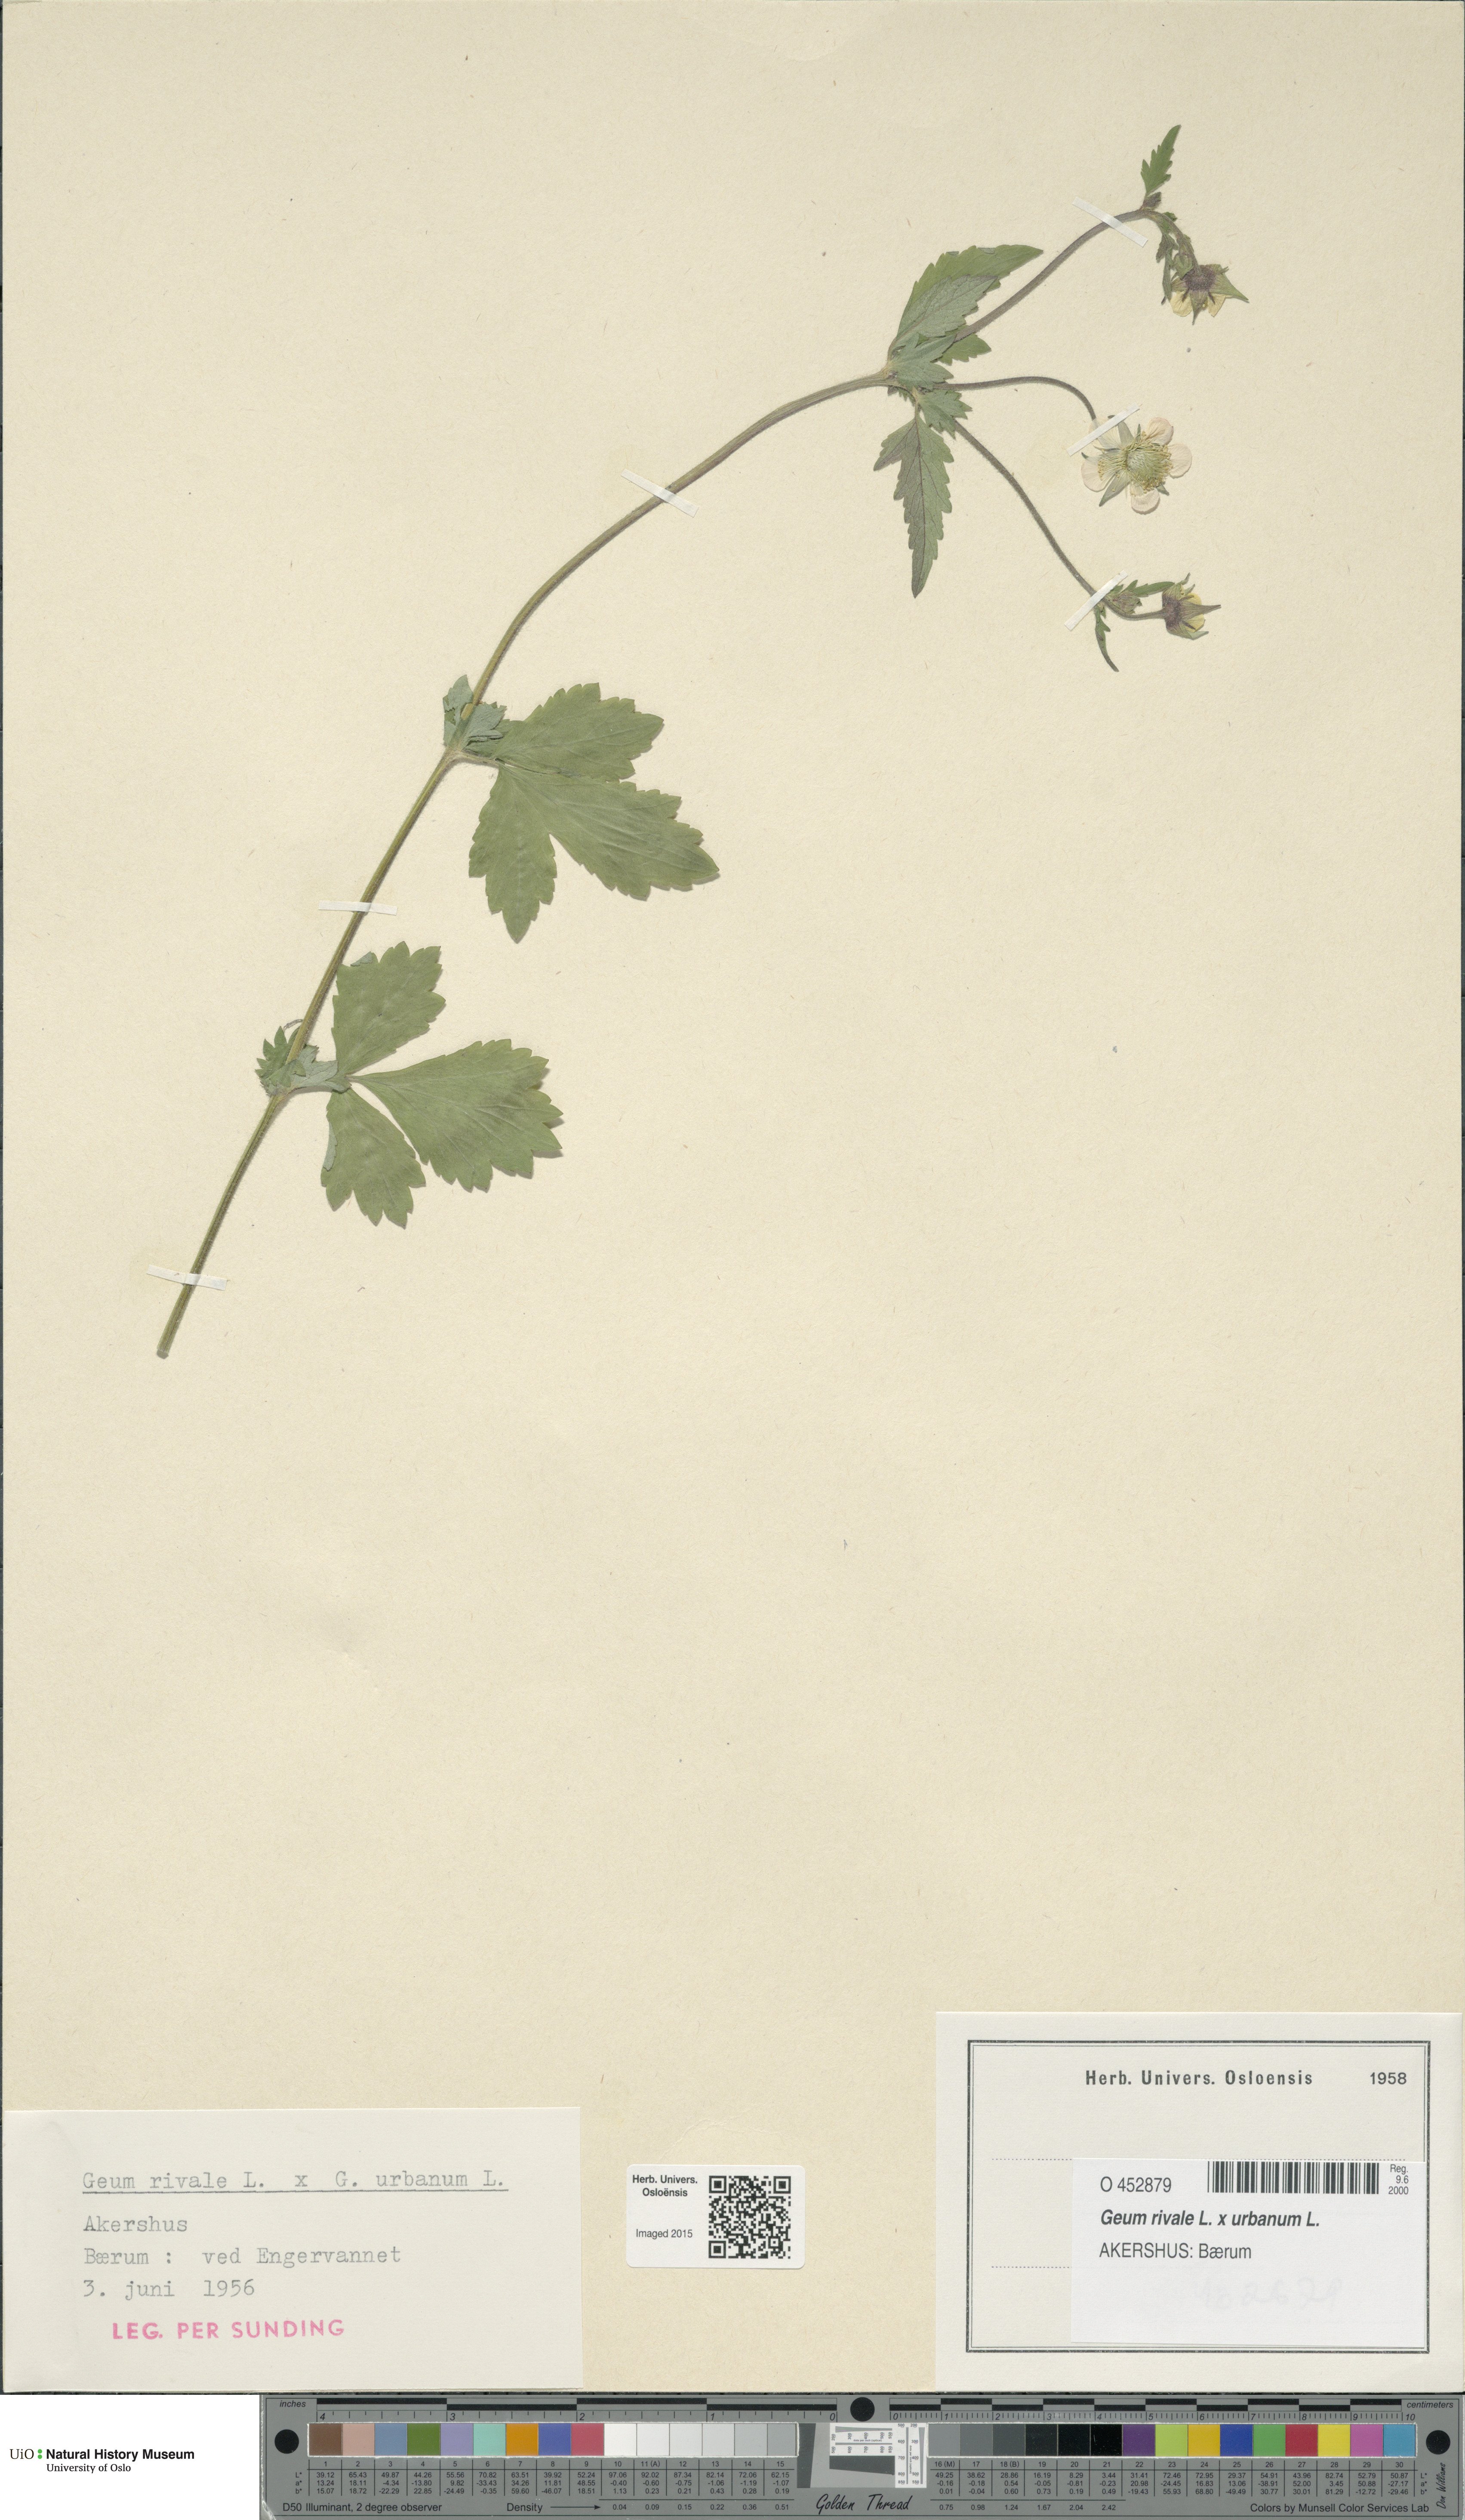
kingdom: Plantae
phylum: Tracheophyta
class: Magnoliopsida
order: Rosales
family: Rosaceae
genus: Geum
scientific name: Geum
